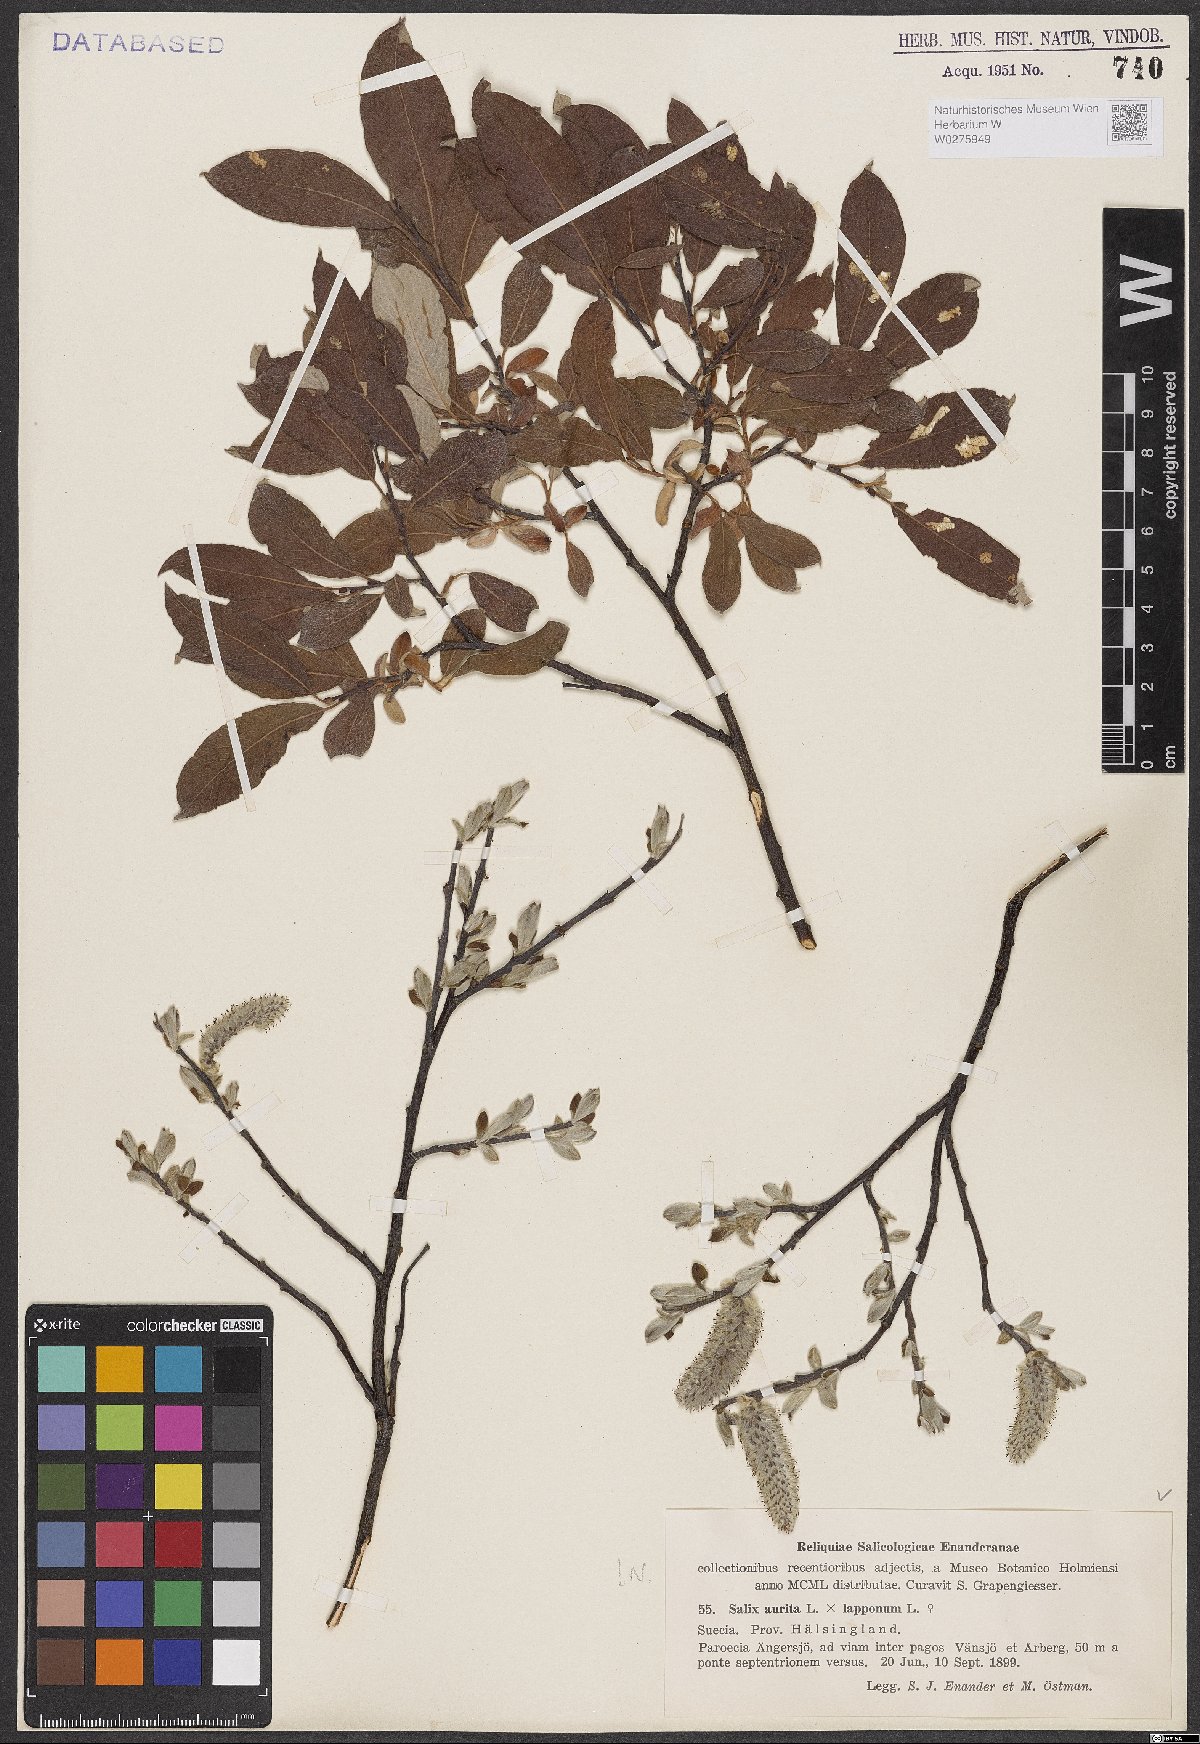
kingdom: Plantae
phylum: Tracheophyta
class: Magnoliopsida
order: Malpighiales
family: Salicaceae
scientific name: Salicaceae
